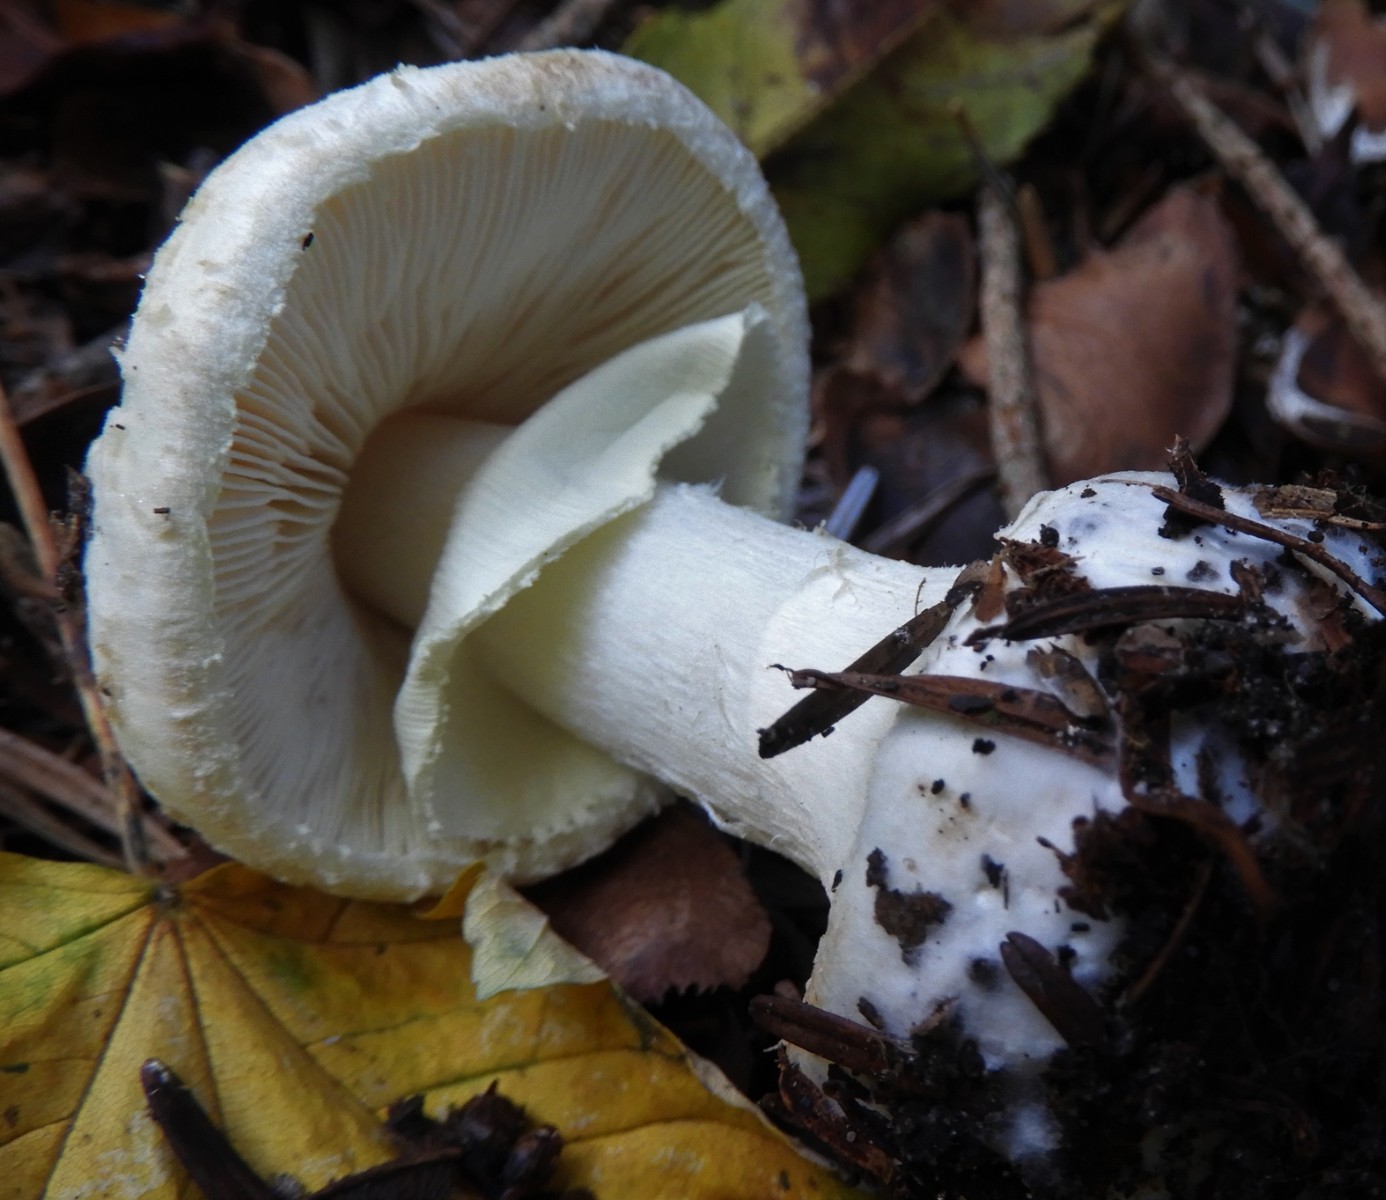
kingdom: Fungi
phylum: Basidiomycota
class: Agaricomycetes
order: Agaricales
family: Amanitaceae
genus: Amanita
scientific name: Amanita citrina
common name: kugleknoldet fluesvamp
